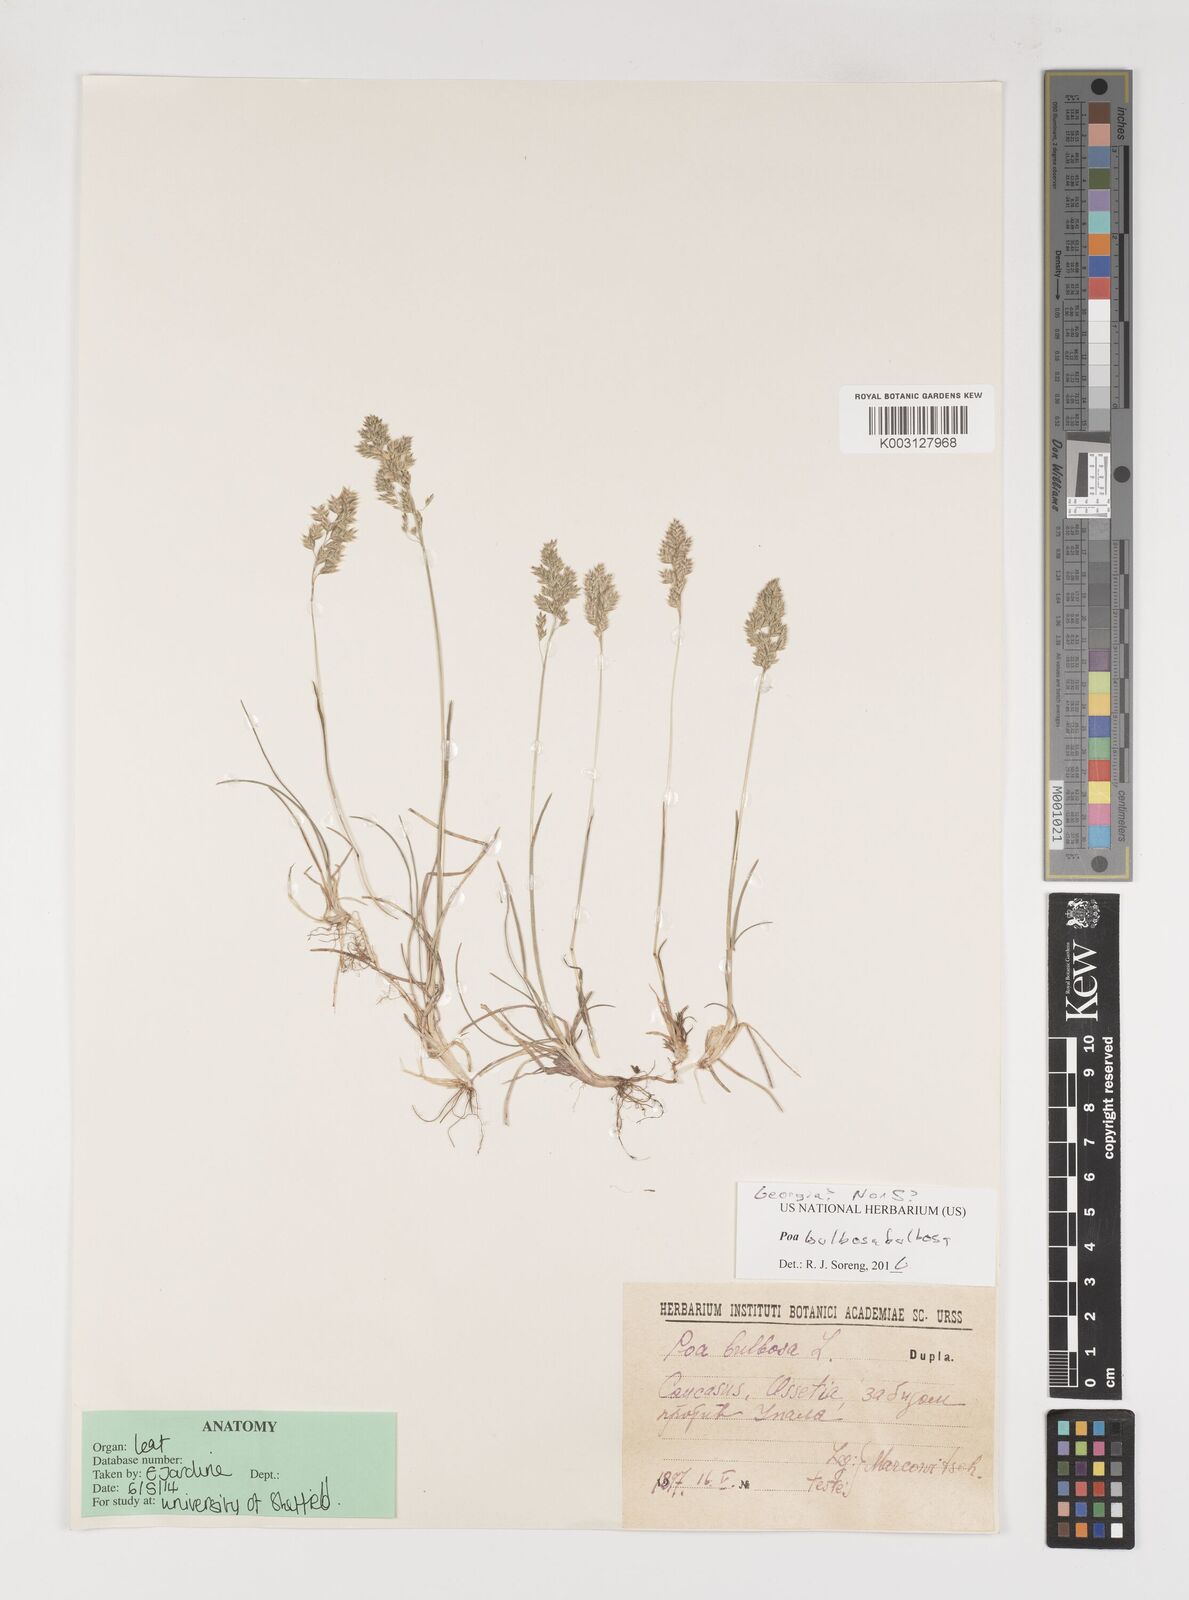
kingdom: Plantae
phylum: Tracheophyta
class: Liliopsida
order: Poales
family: Poaceae
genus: Poa
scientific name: Poa bulbosa
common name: Bulbous bluegrass
